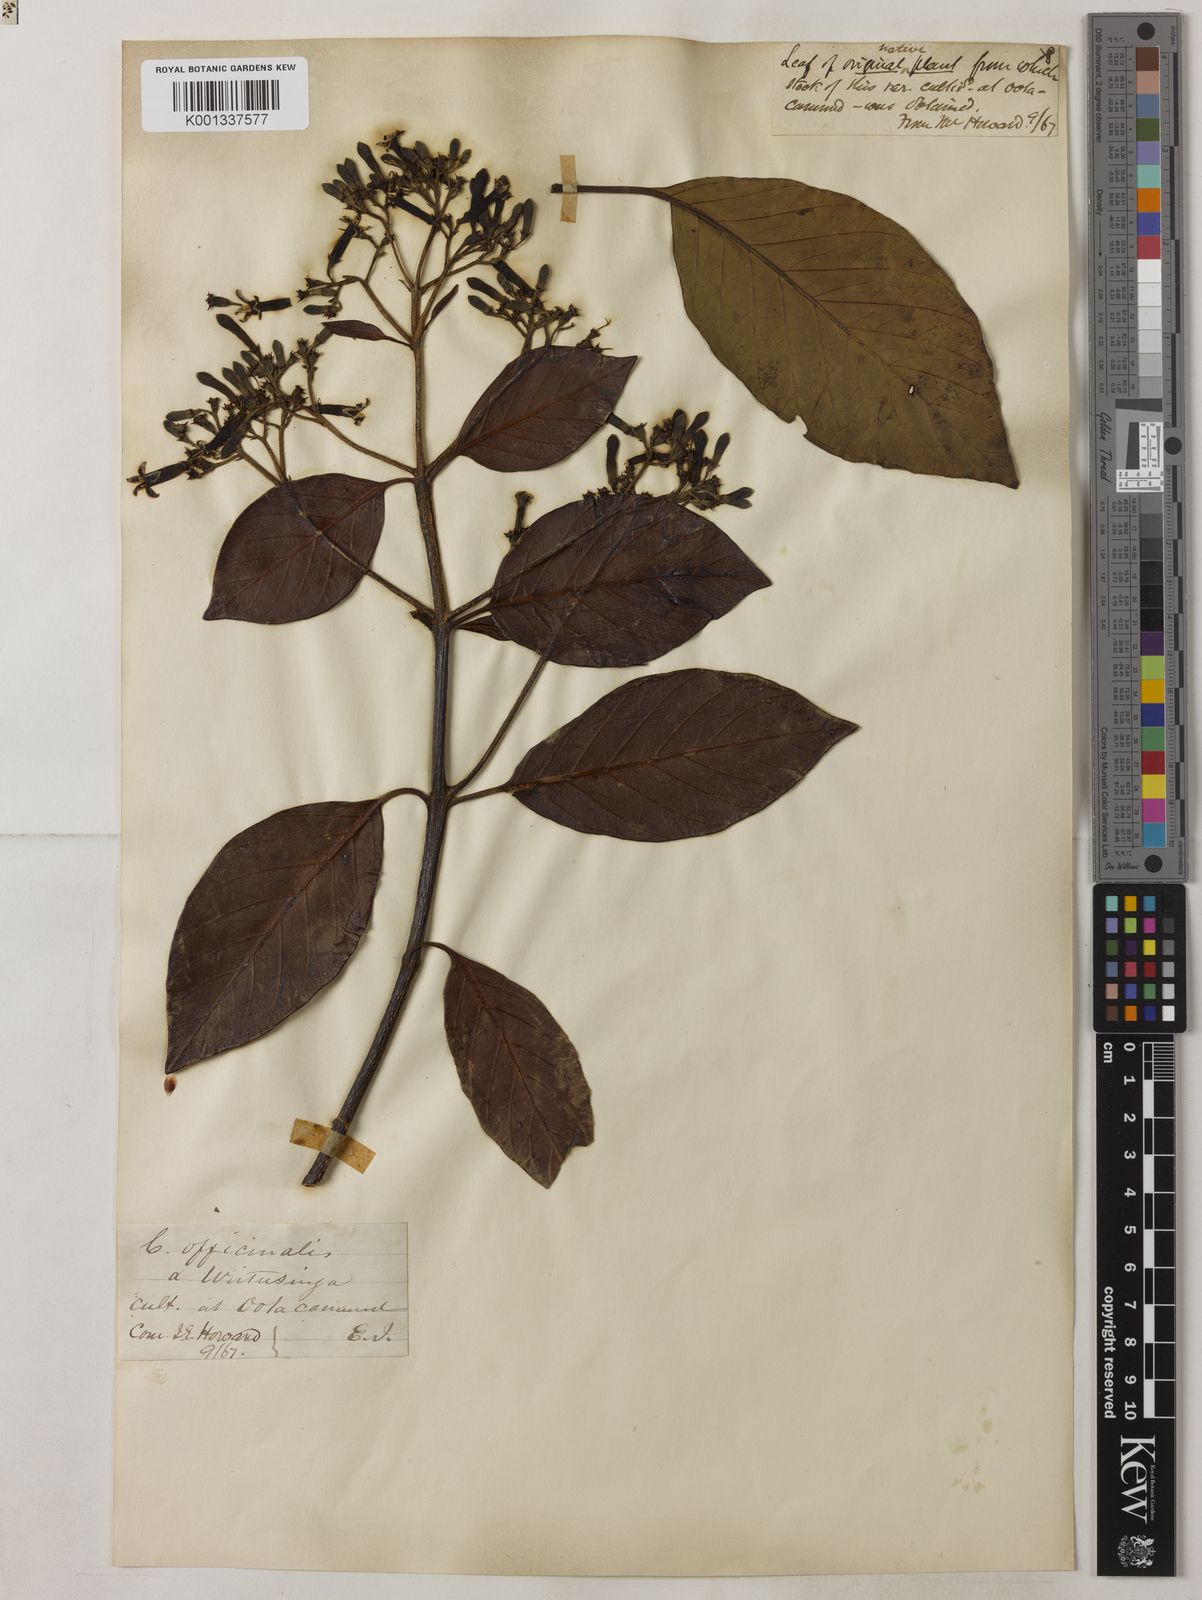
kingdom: Plantae
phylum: Tracheophyta
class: Magnoliopsida
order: Gentianales
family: Rubiaceae
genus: Cinchona
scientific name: Cinchona officinalis
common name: Lojabark
